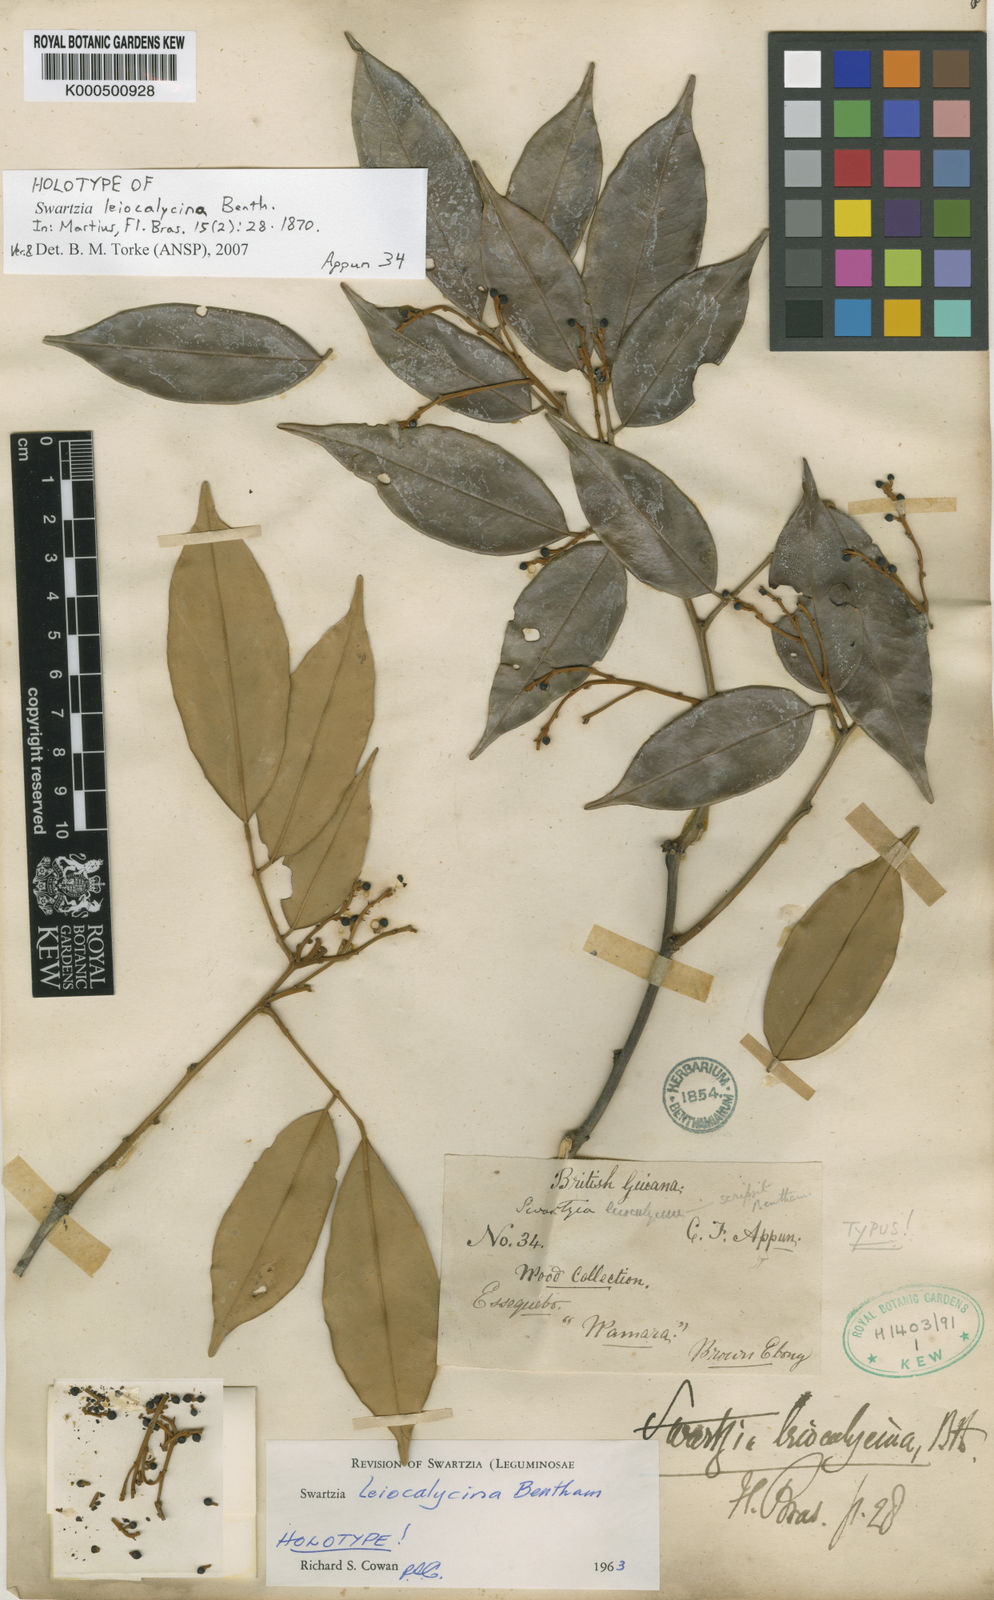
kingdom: Plantae
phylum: Tracheophyta
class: Magnoliopsida
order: Fabales
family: Fabaceae
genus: Swartzia
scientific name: Swartzia leiocalycina
